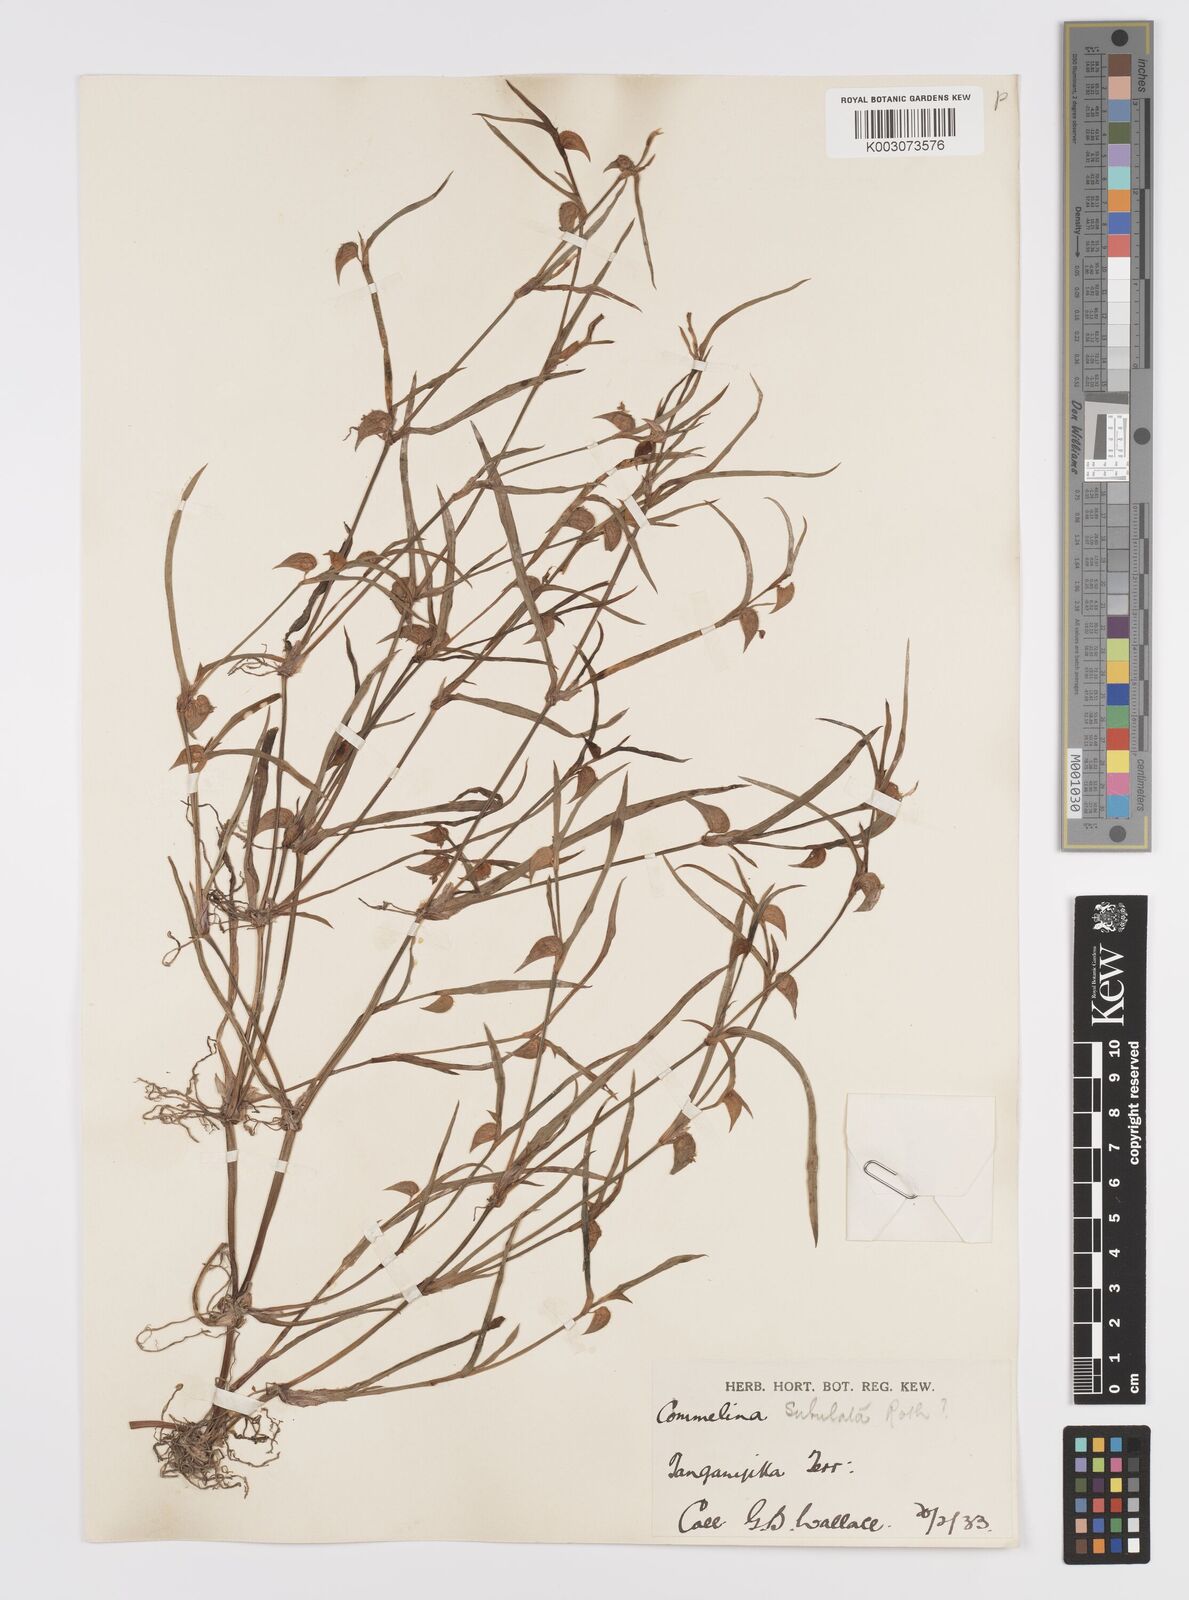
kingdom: Plantae
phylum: Tracheophyta
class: Liliopsida
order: Commelinales
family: Commelinaceae
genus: Commelina
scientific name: Commelina subulata
